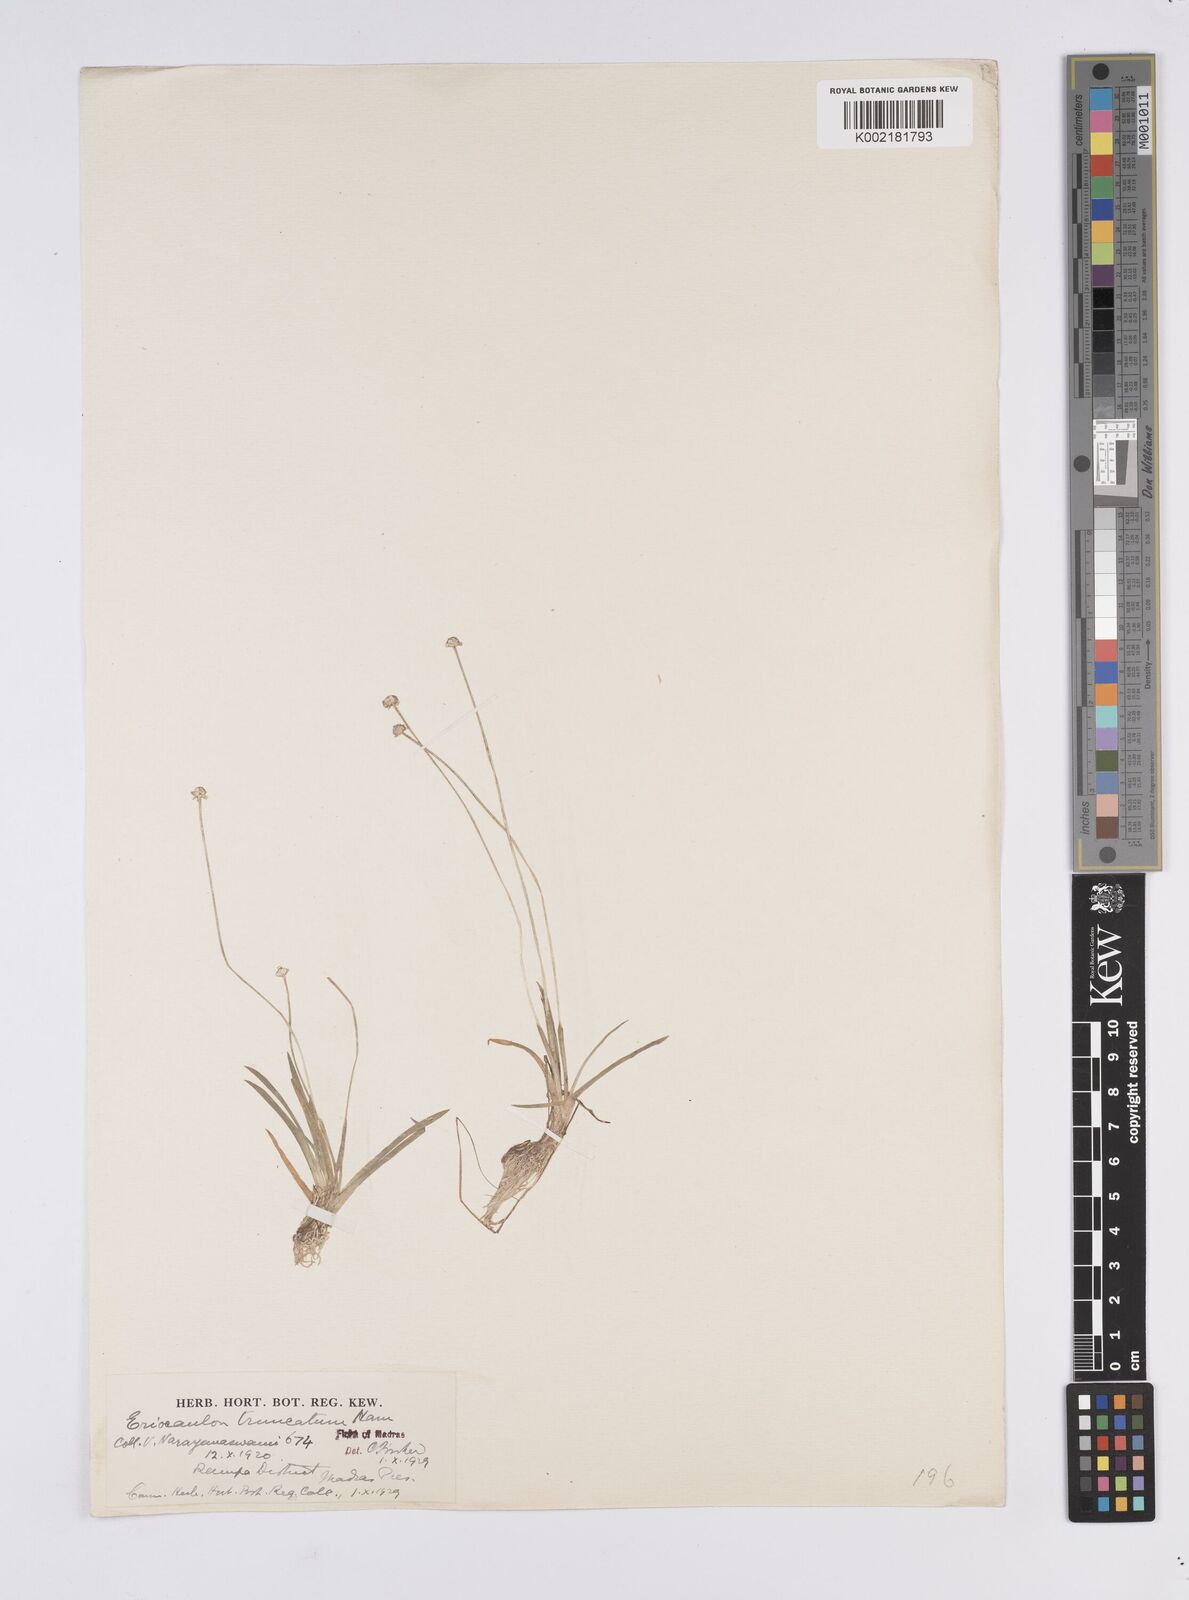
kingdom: Plantae
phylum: Tracheophyta
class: Liliopsida
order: Poales
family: Eriocaulaceae
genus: Eriocaulon
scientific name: Eriocaulon truncatum
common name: Short pipe-wort
